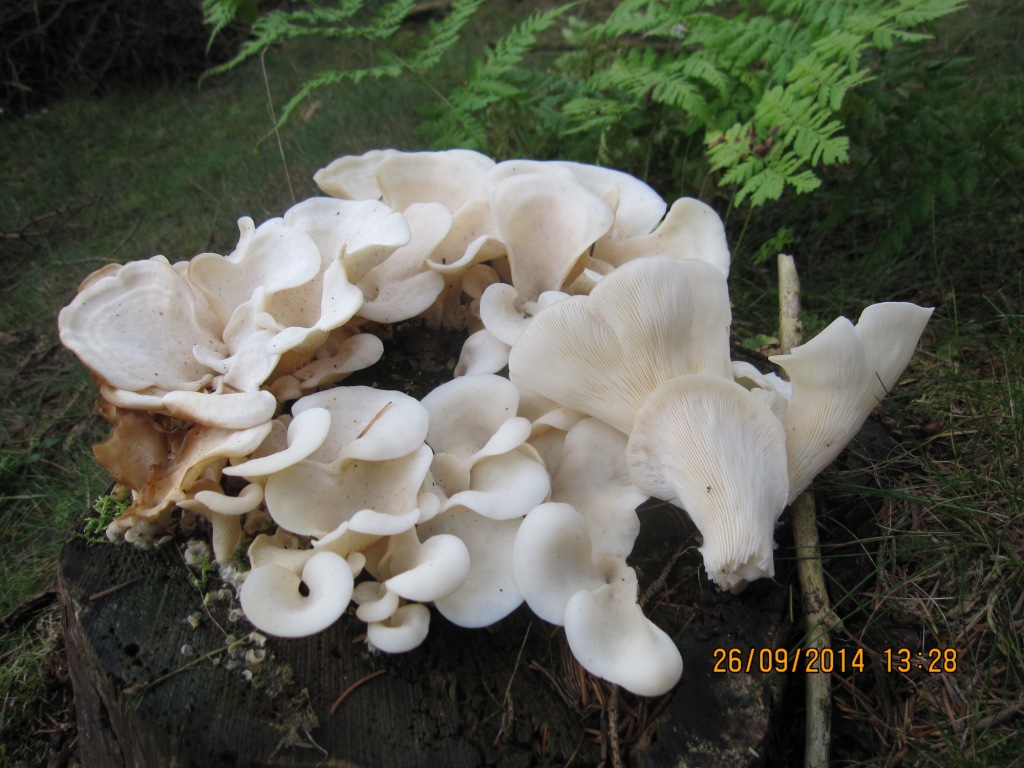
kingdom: Fungi
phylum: Basidiomycota
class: Agaricomycetes
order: Agaricales
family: Marasmiaceae
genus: Pleurocybella
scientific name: Pleurocybella porrigens
